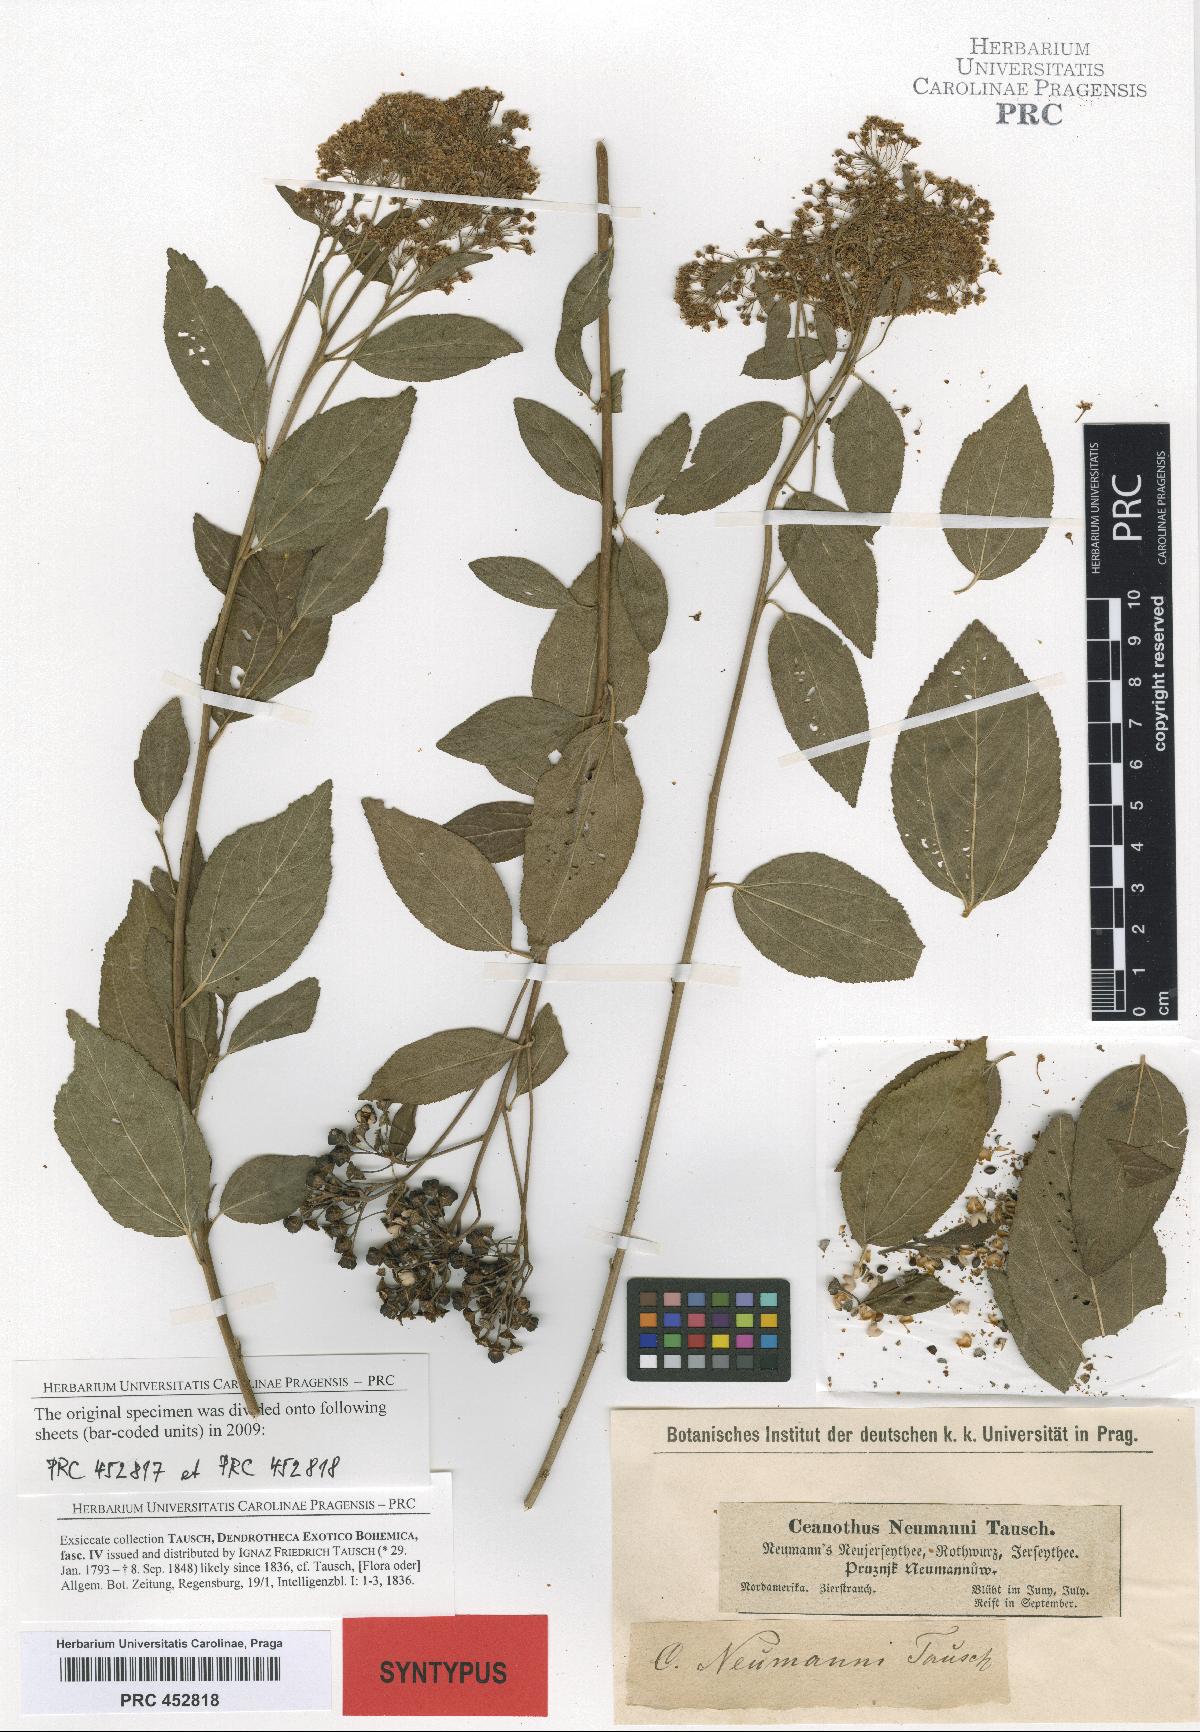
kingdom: Plantae
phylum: Tracheophyta
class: Magnoliopsida
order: Rosales
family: Rhamnaceae
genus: Ceanothus
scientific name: Ceanothus neumannii
